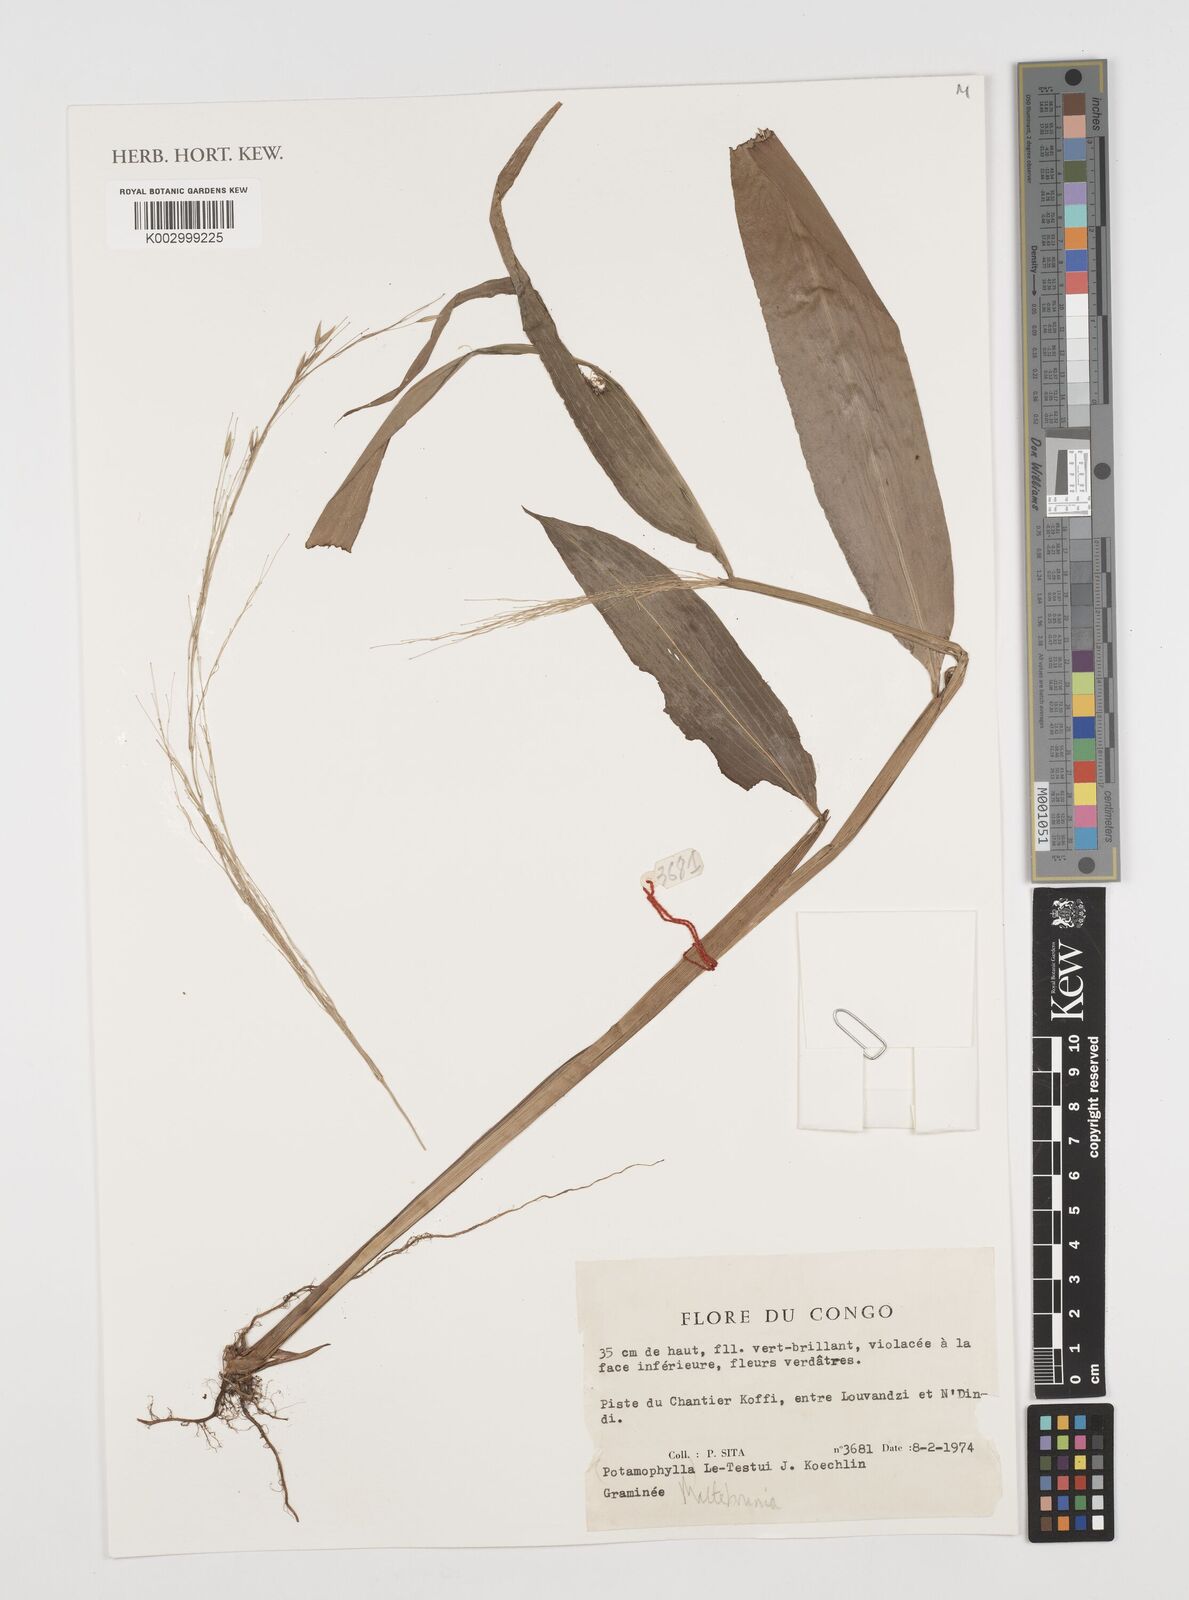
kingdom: Plantae
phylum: Tracheophyta
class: Liliopsida
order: Poales
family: Poaceae
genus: Maltebrunia
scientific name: Maltebrunia letestui
